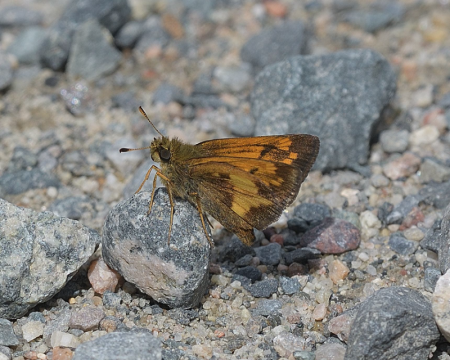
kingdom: Animalia
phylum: Arthropoda
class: Insecta
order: Lepidoptera
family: Hesperiidae
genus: Lon
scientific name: Lon hobomok
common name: Hobomok Skipper
